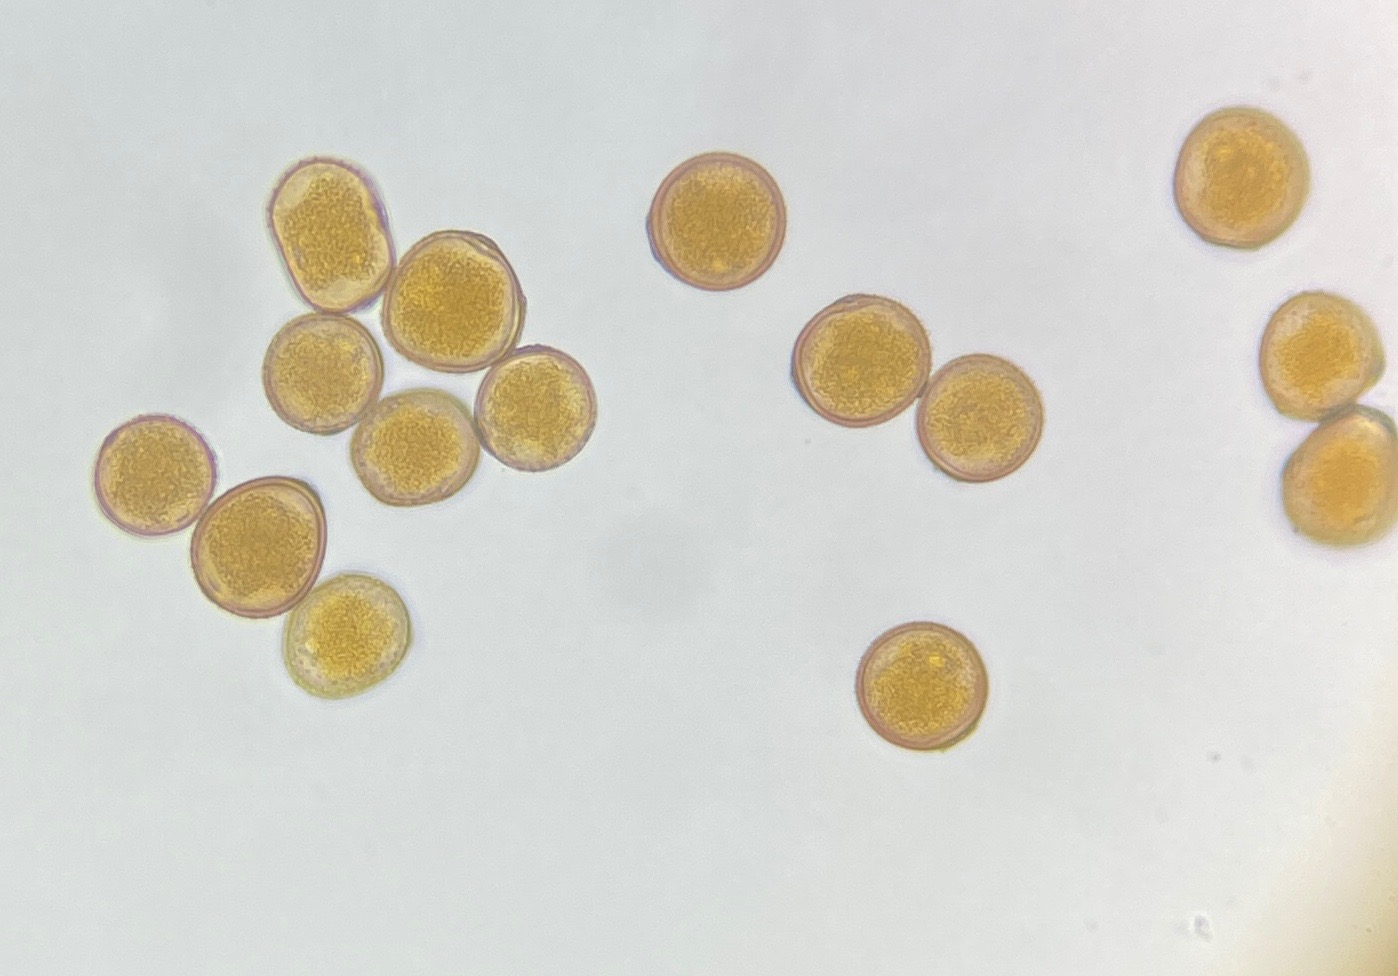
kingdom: Fungi
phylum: Basidiomycota
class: Pucciniomycetes
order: Pucciniales
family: Pucciniaceae
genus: Puccinia
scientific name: Puccinia suaveolens
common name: tidsel-tvecellerust
